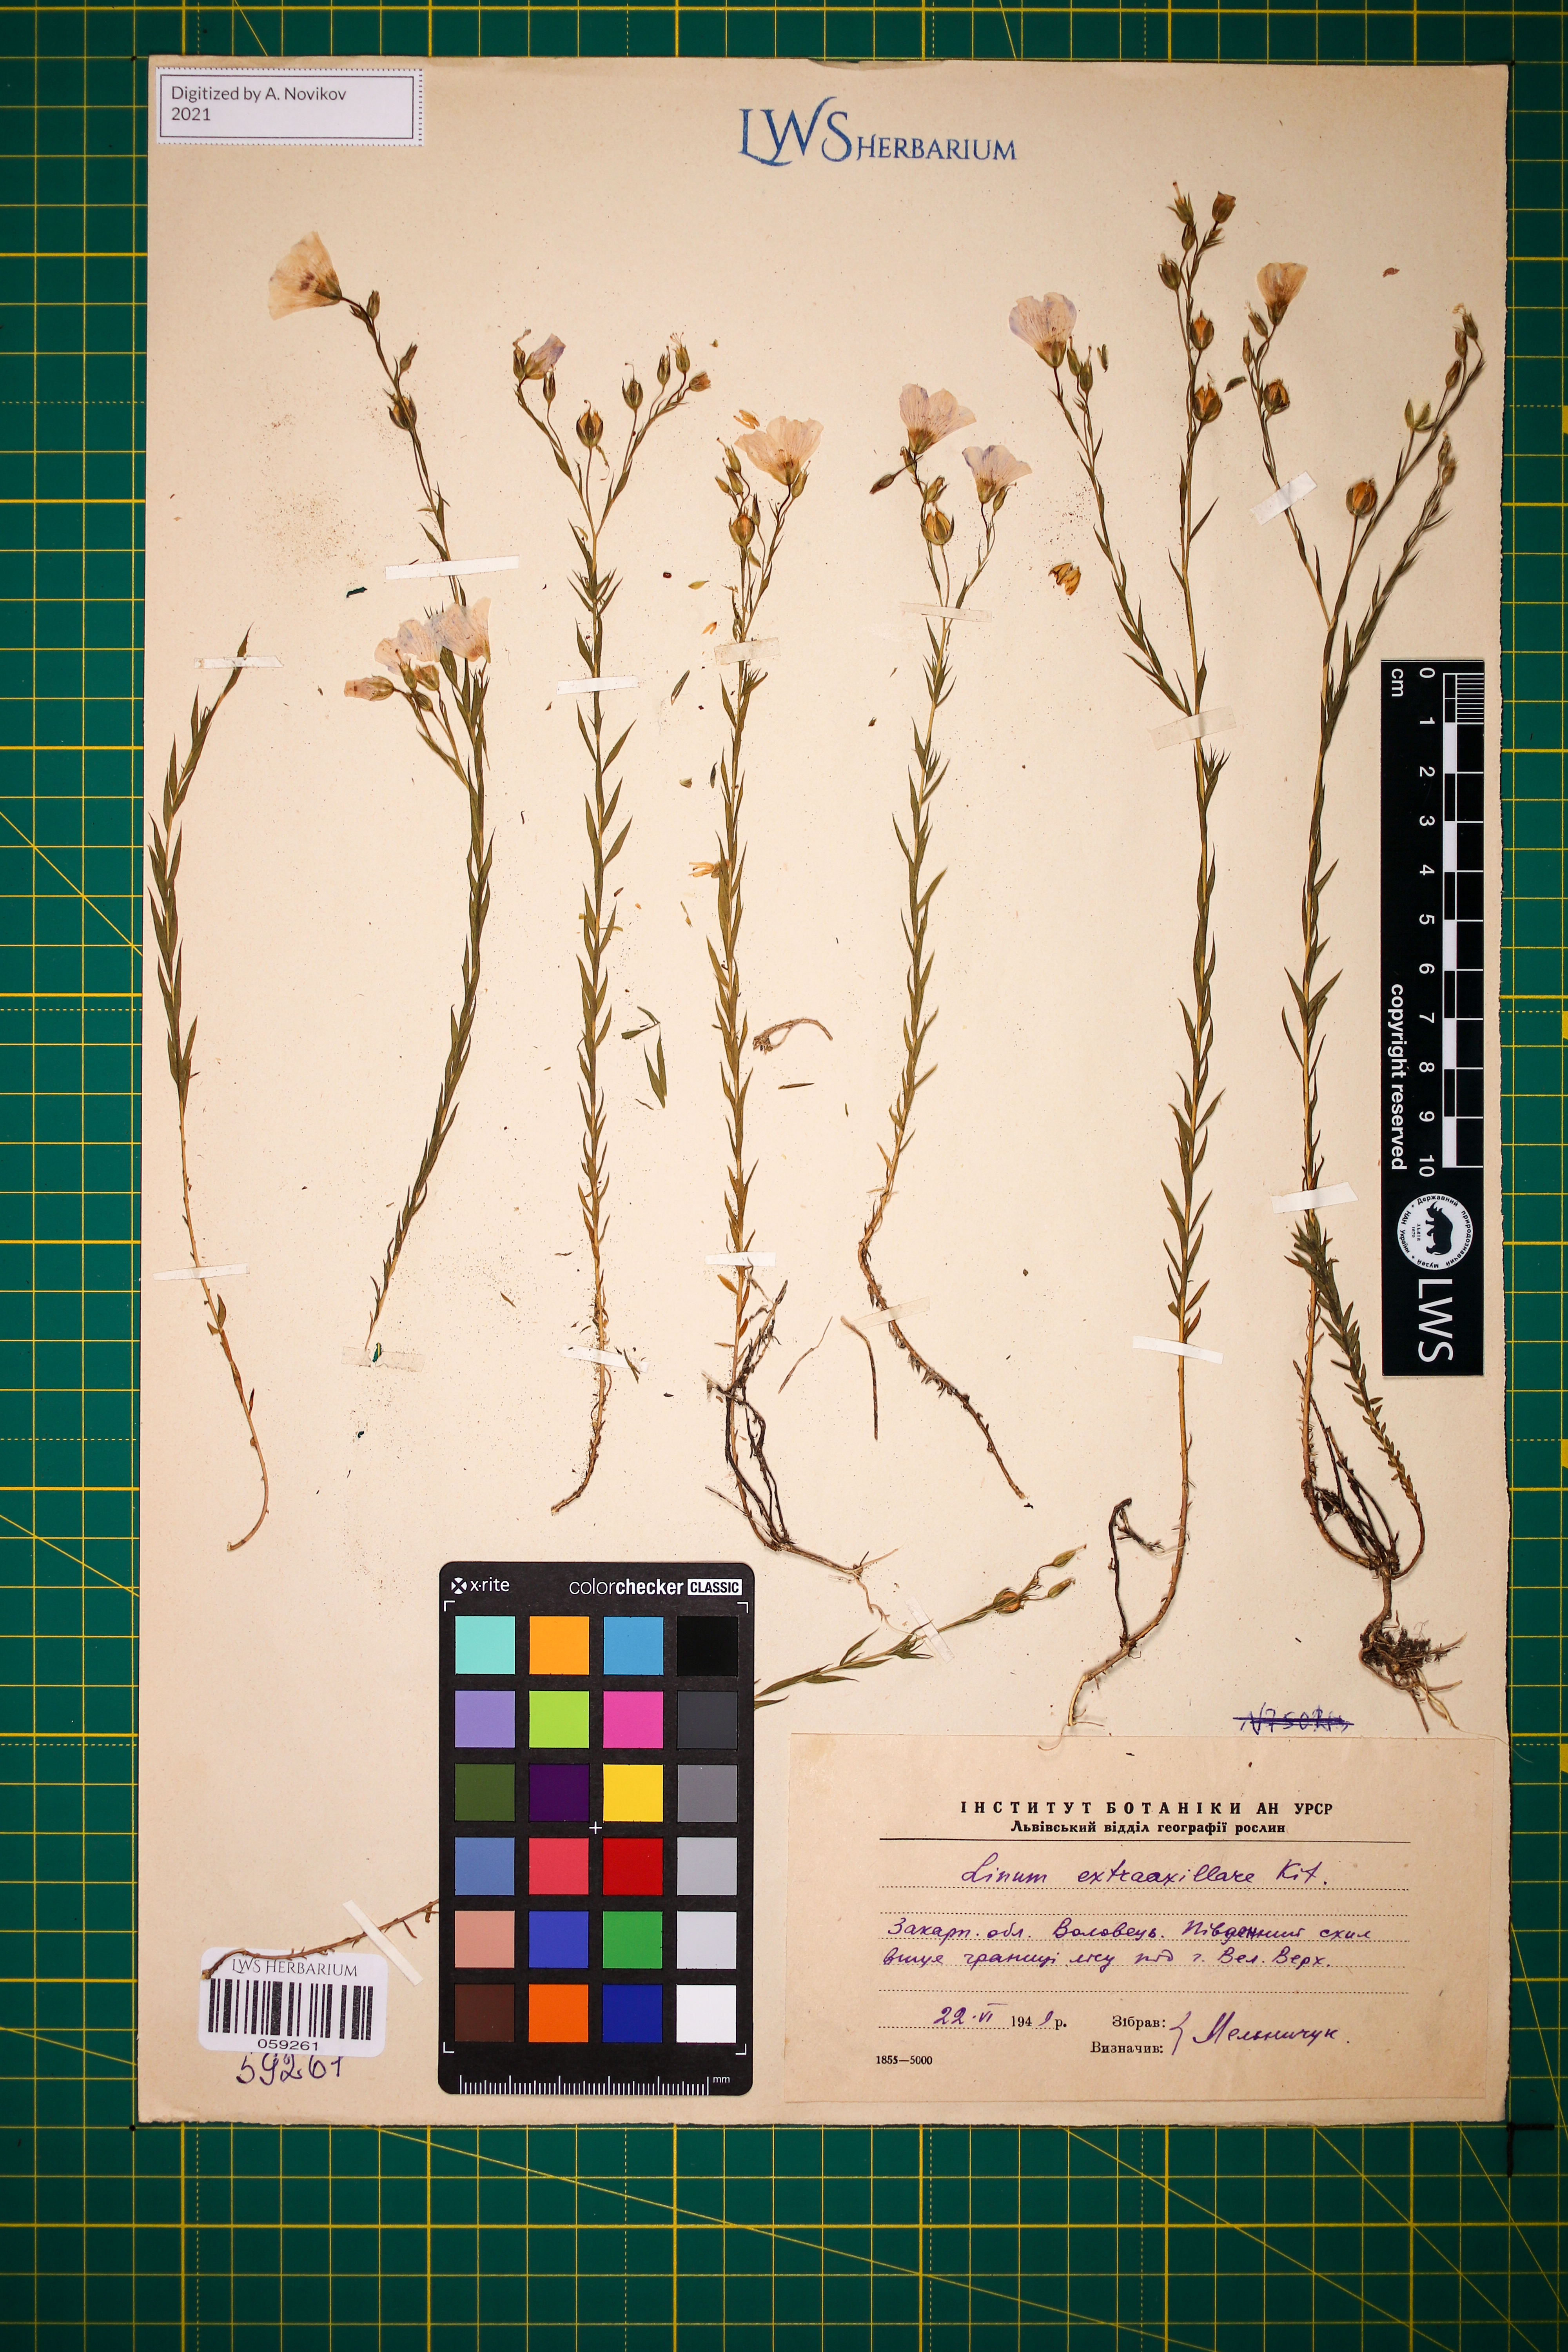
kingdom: Plantae
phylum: Tracheophyta
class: Magnoliopsida
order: Malpighiales
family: Linaceae
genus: Linum
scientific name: Linum perenne
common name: Blue flax
